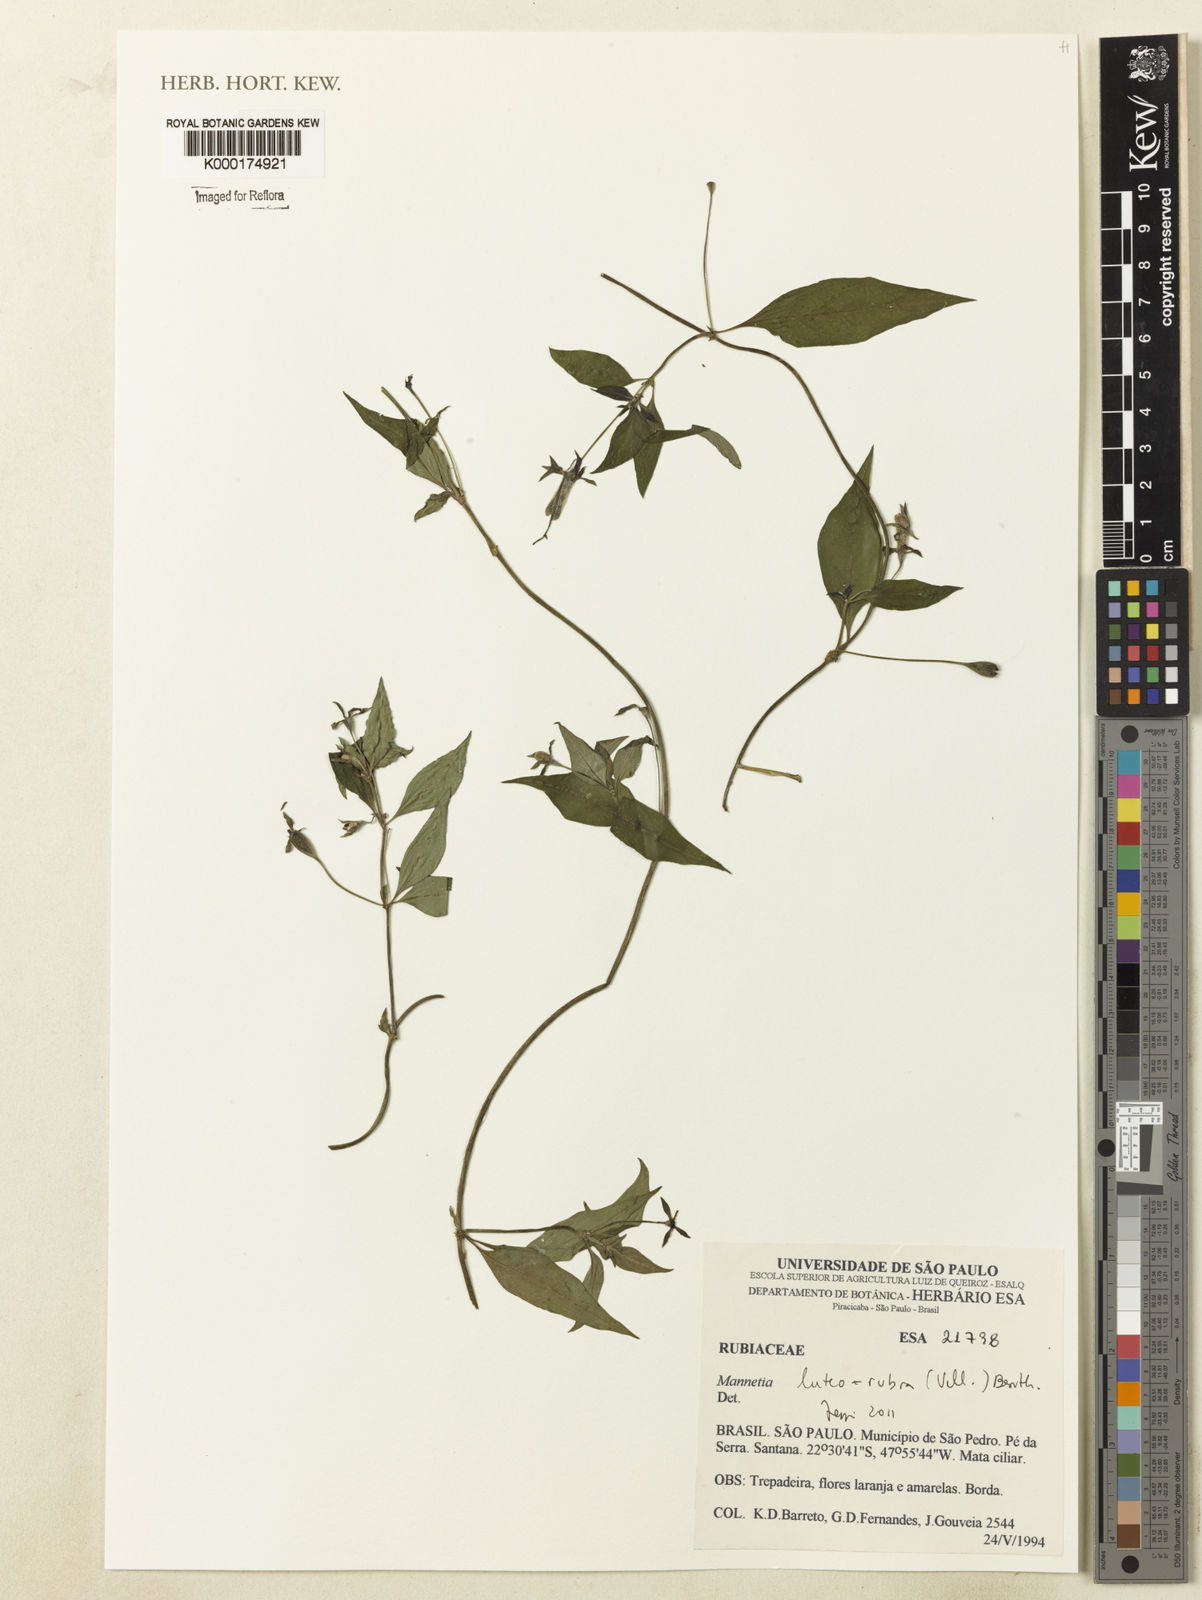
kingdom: Plantae
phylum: Tracheophyta
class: Magnoliopsida
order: Gentianales
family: Rubiaceae
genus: Manettia
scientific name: Manettia luteorubra
